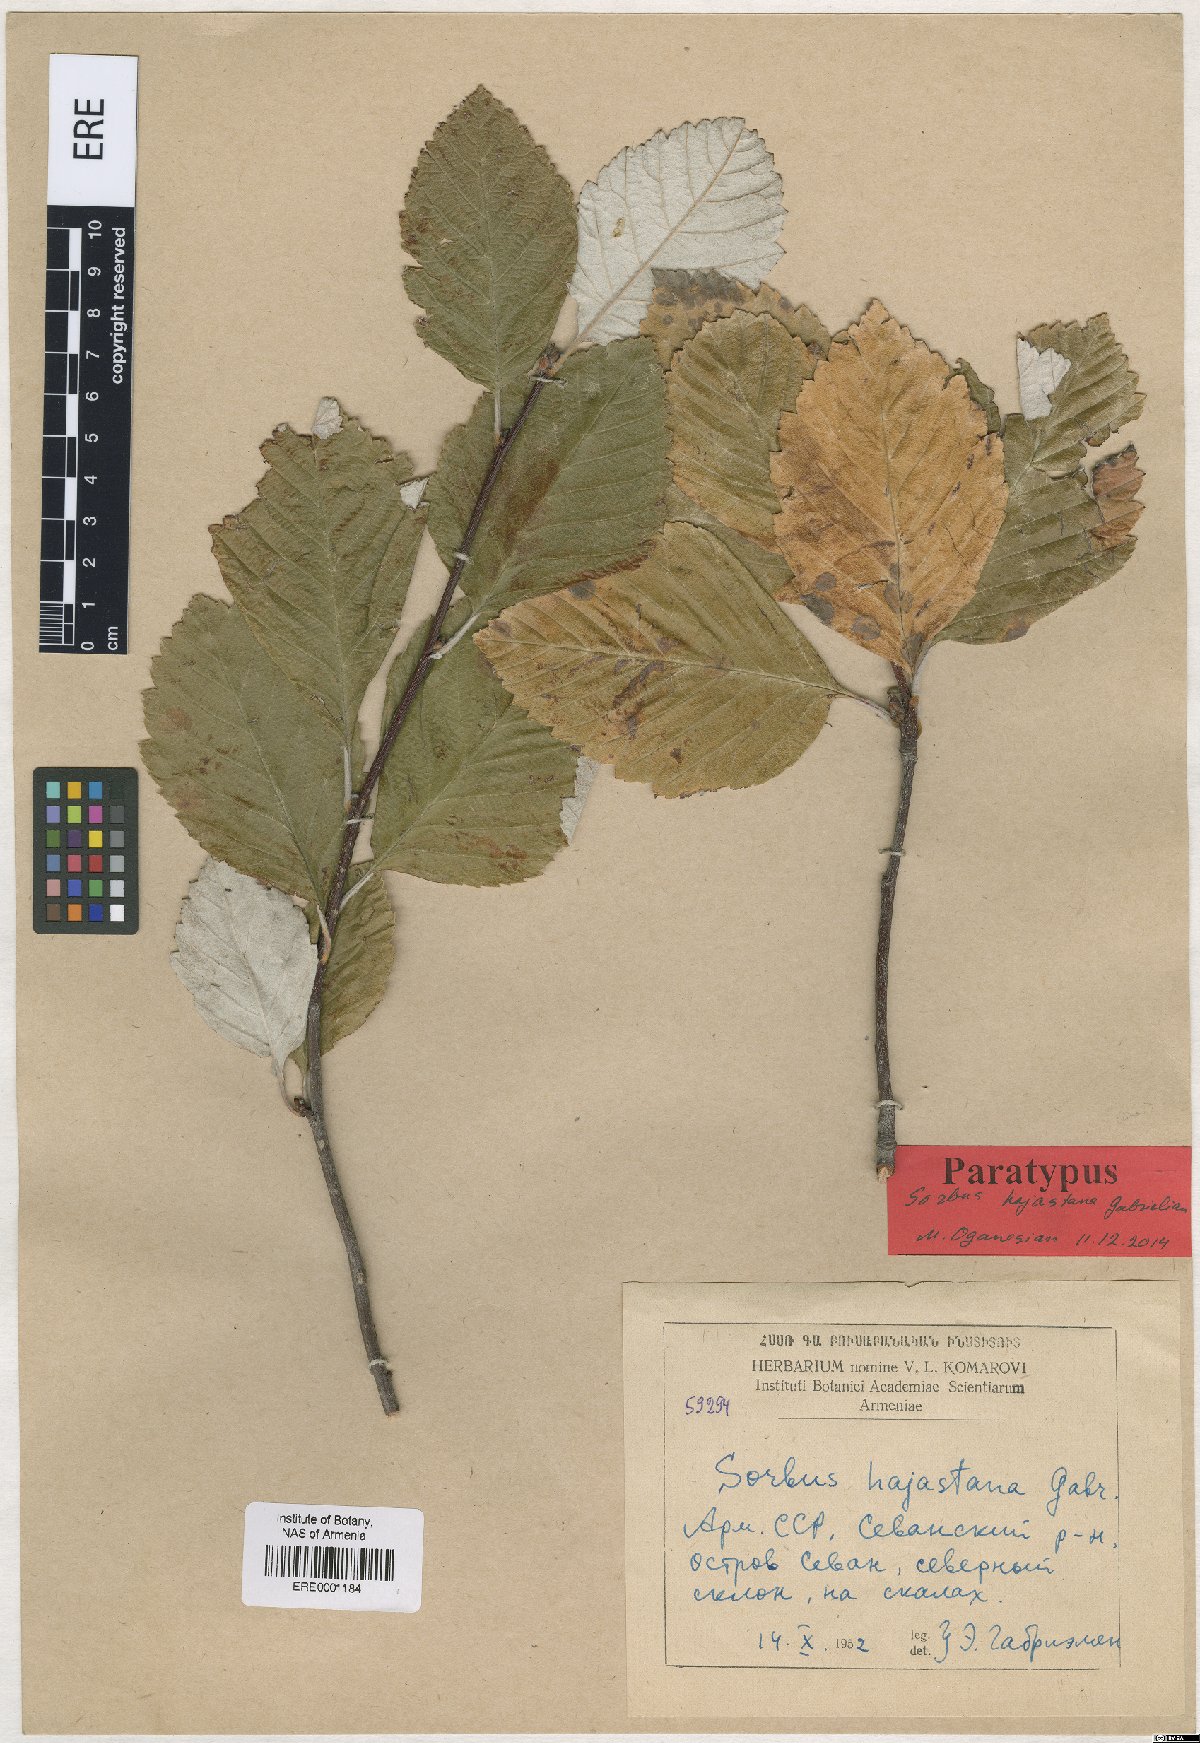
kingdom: Plantae
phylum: Tracheophyta
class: Magnoliopsida
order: Rosales
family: Rosaceae
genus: Sorbus
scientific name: Sorbus hajastana
